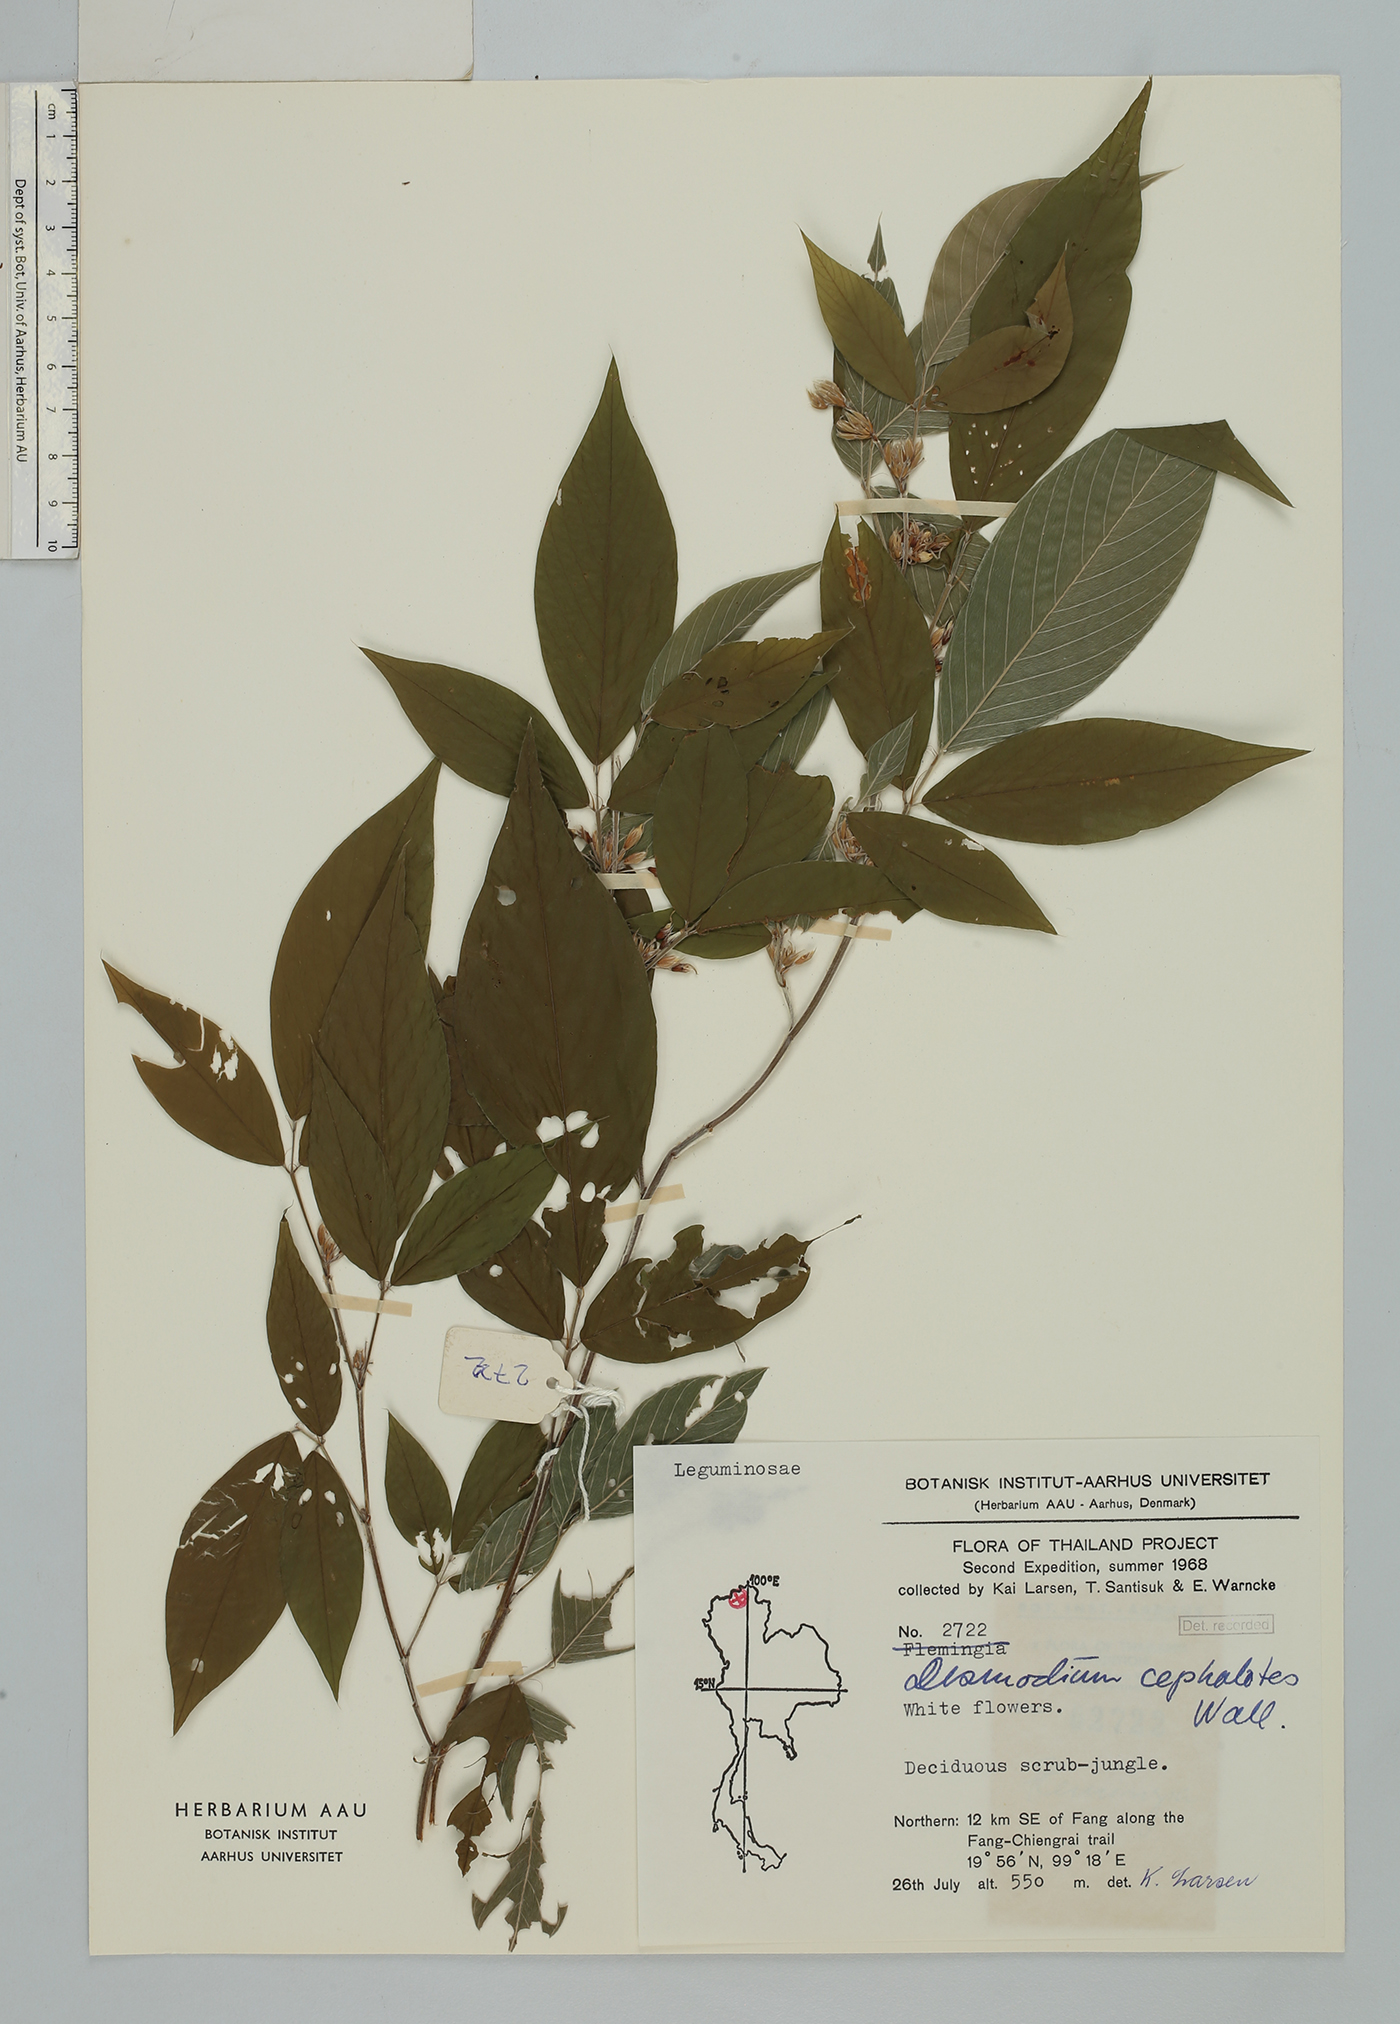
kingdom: Plantae
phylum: Tracheophyta
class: Magnoliopsida
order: Fabales
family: Fabaceae
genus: Dendrolobium
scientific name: Dendrolobium triangulare
